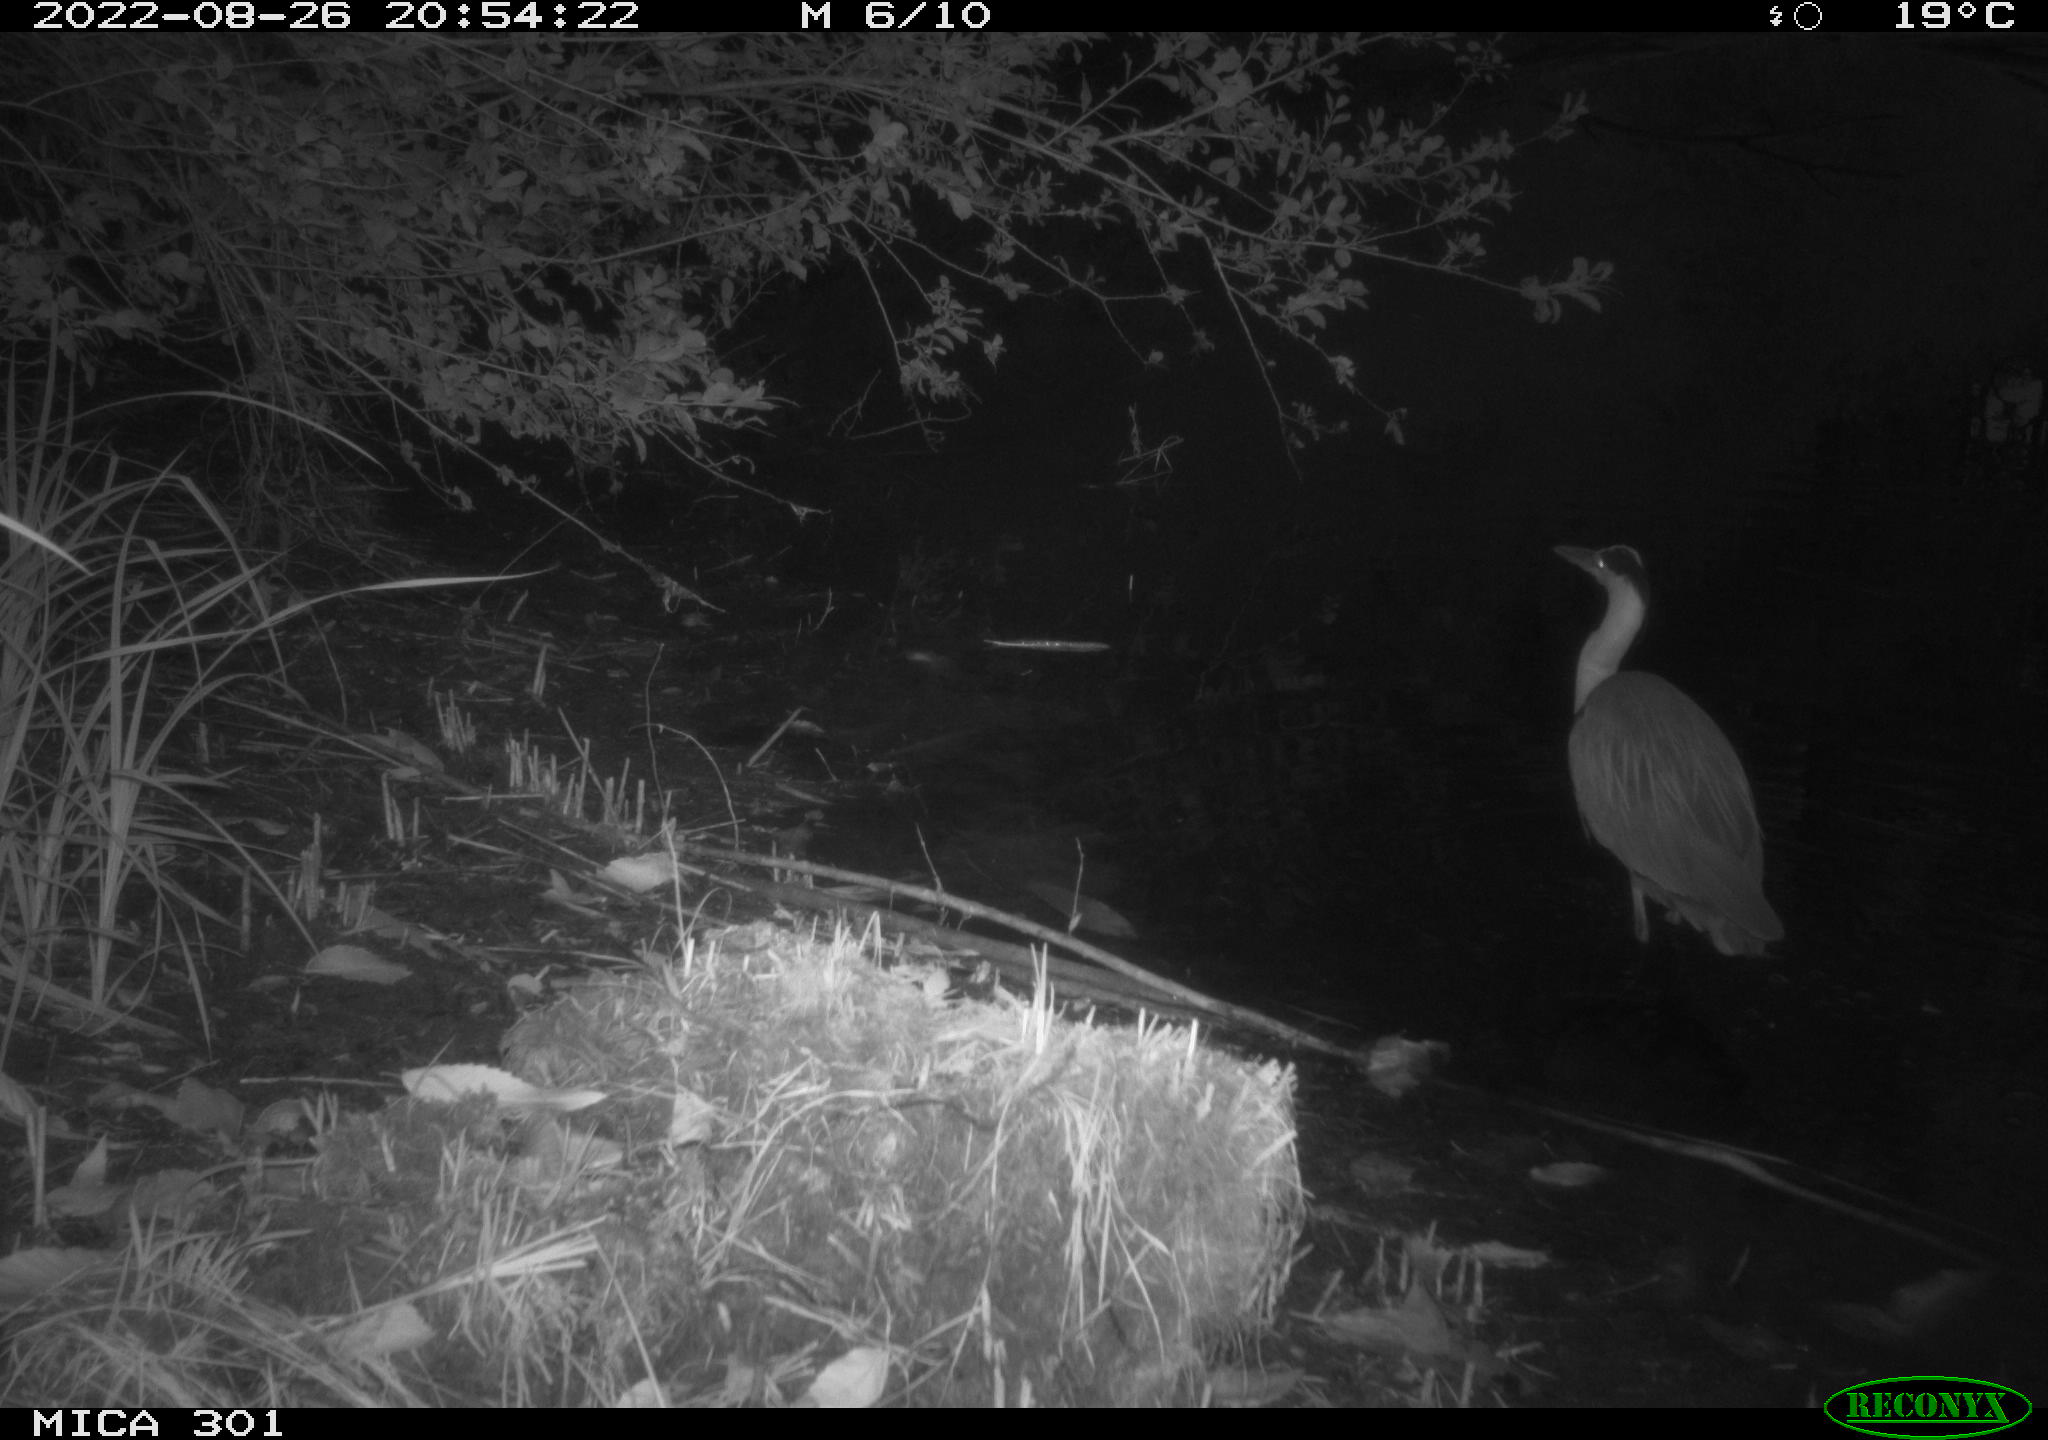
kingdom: Animalia
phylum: Chordata
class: Aves
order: Pelecaniformes
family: Ardeidae
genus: Ardea
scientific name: Ardea cinerea
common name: Grey heron
